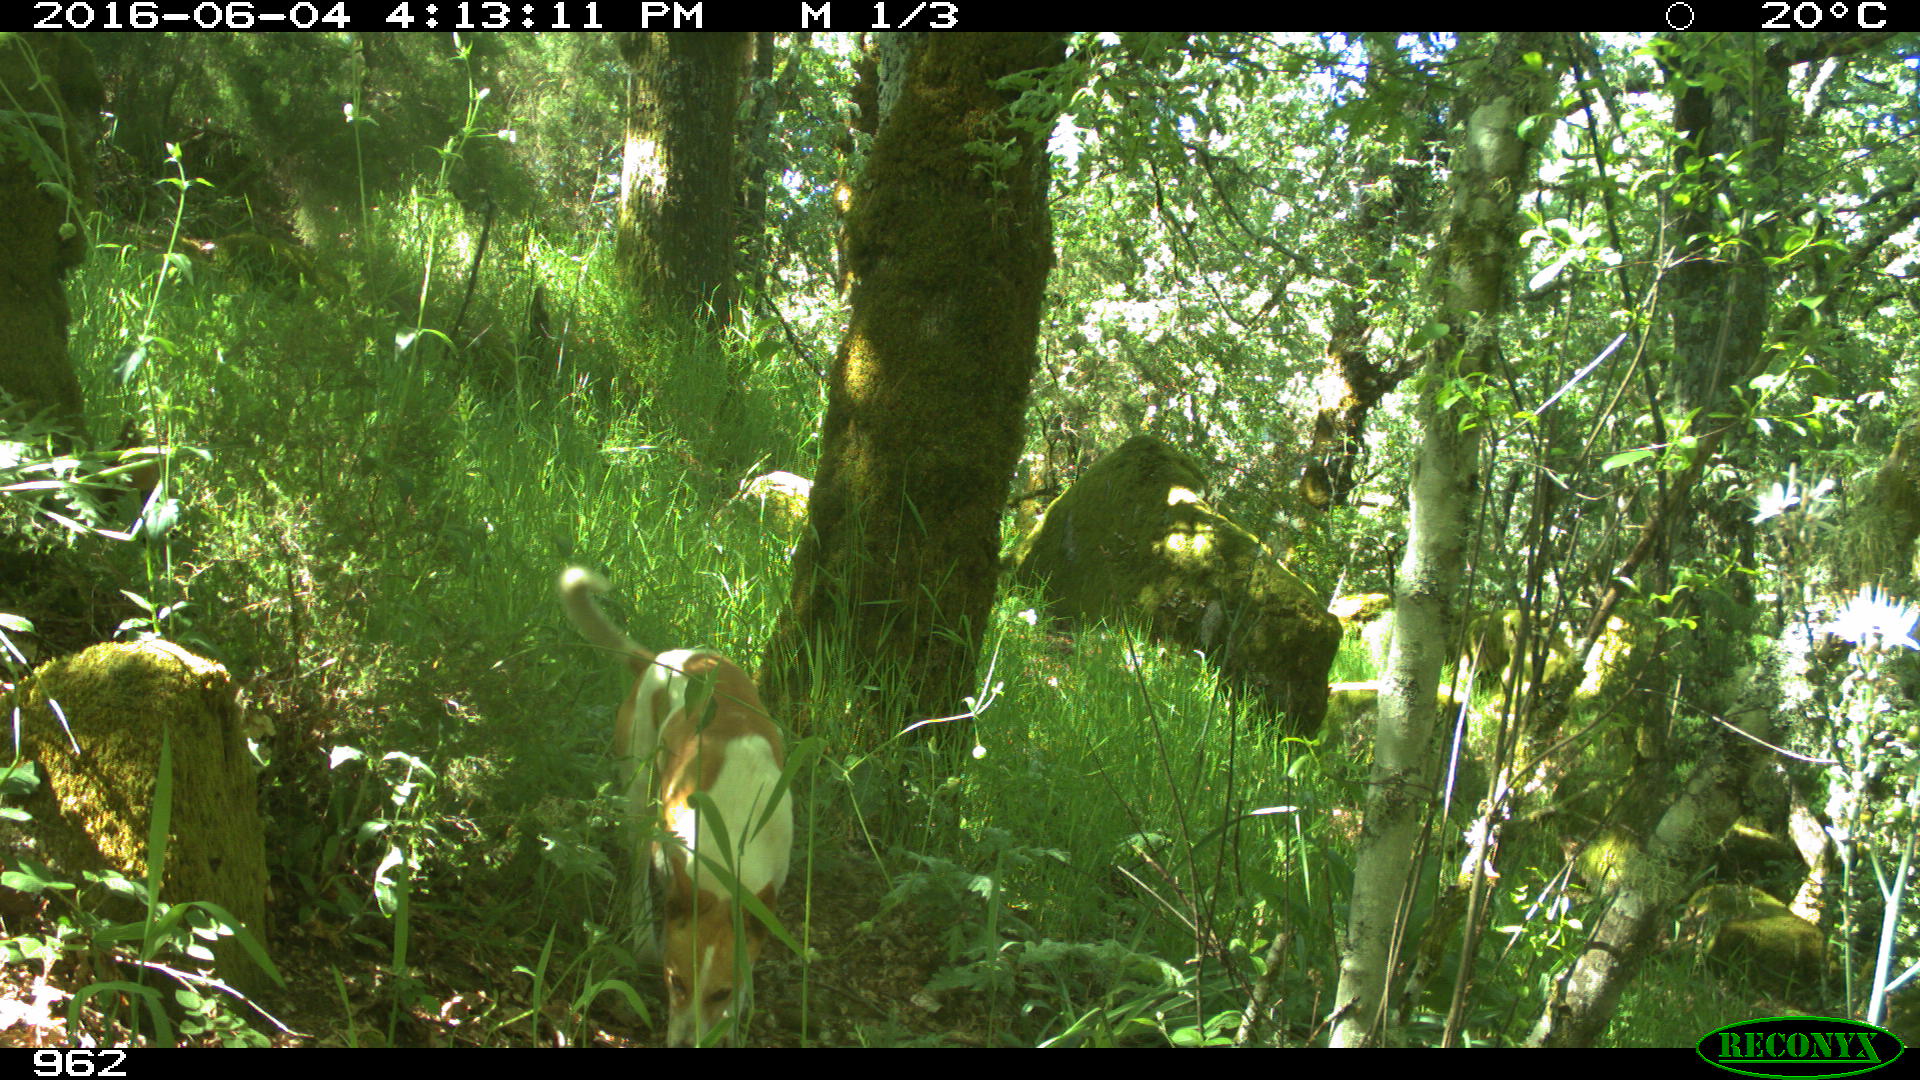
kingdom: Animalia
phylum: Chordata
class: Mammalia
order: Carnivora
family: Canidae
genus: Canis
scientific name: Canis lupus
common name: Gray wolf
